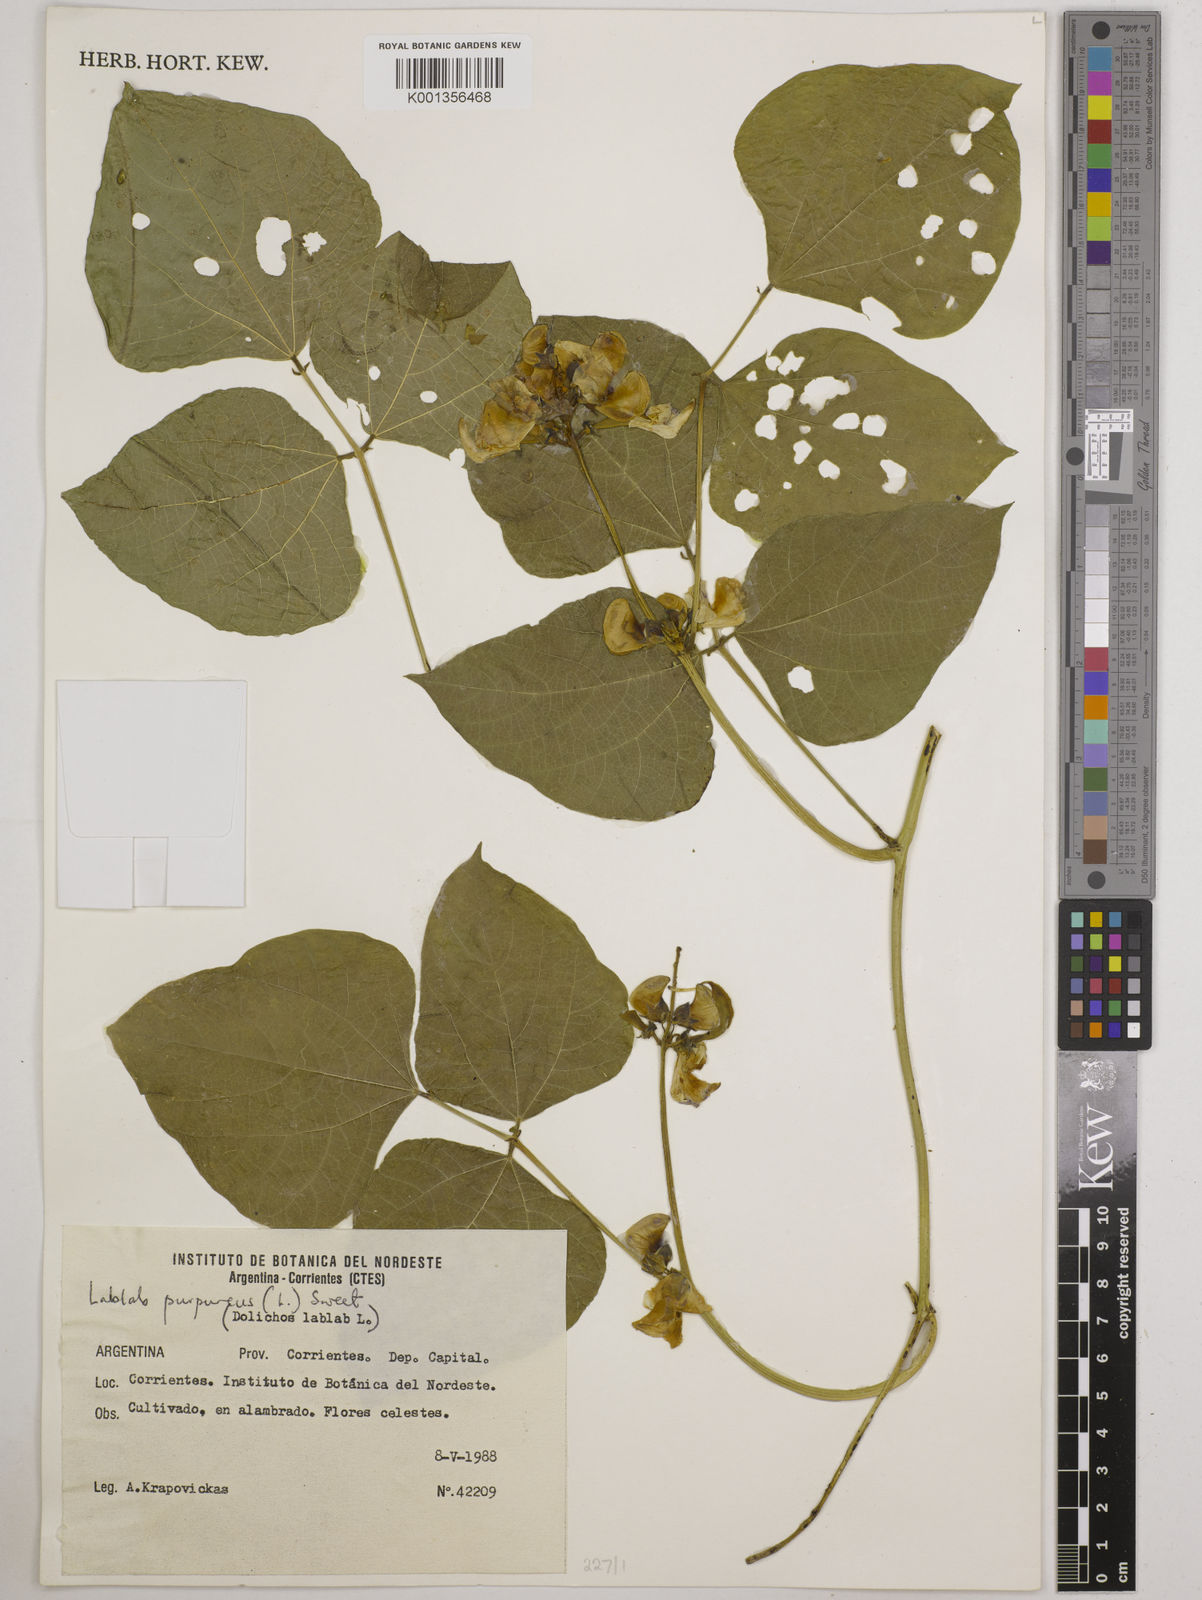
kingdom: Plantae
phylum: Tracheophyta
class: Magnoliopsida
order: Fabales
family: Fabaceae
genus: Lablab
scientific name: Lablab purpureus
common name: Lablab-bean
